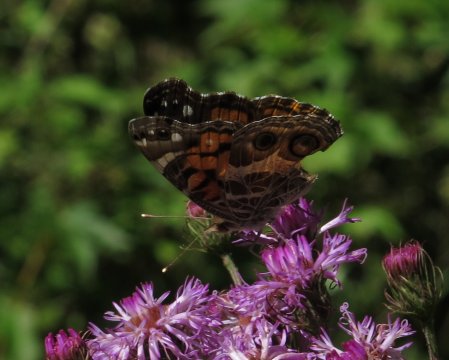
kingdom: Animalia
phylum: Arthropoda
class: Insecta
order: Lepidoptera
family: Nymphalidae
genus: Vanessa
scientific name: Vanessa virginiensis
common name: American Lady
